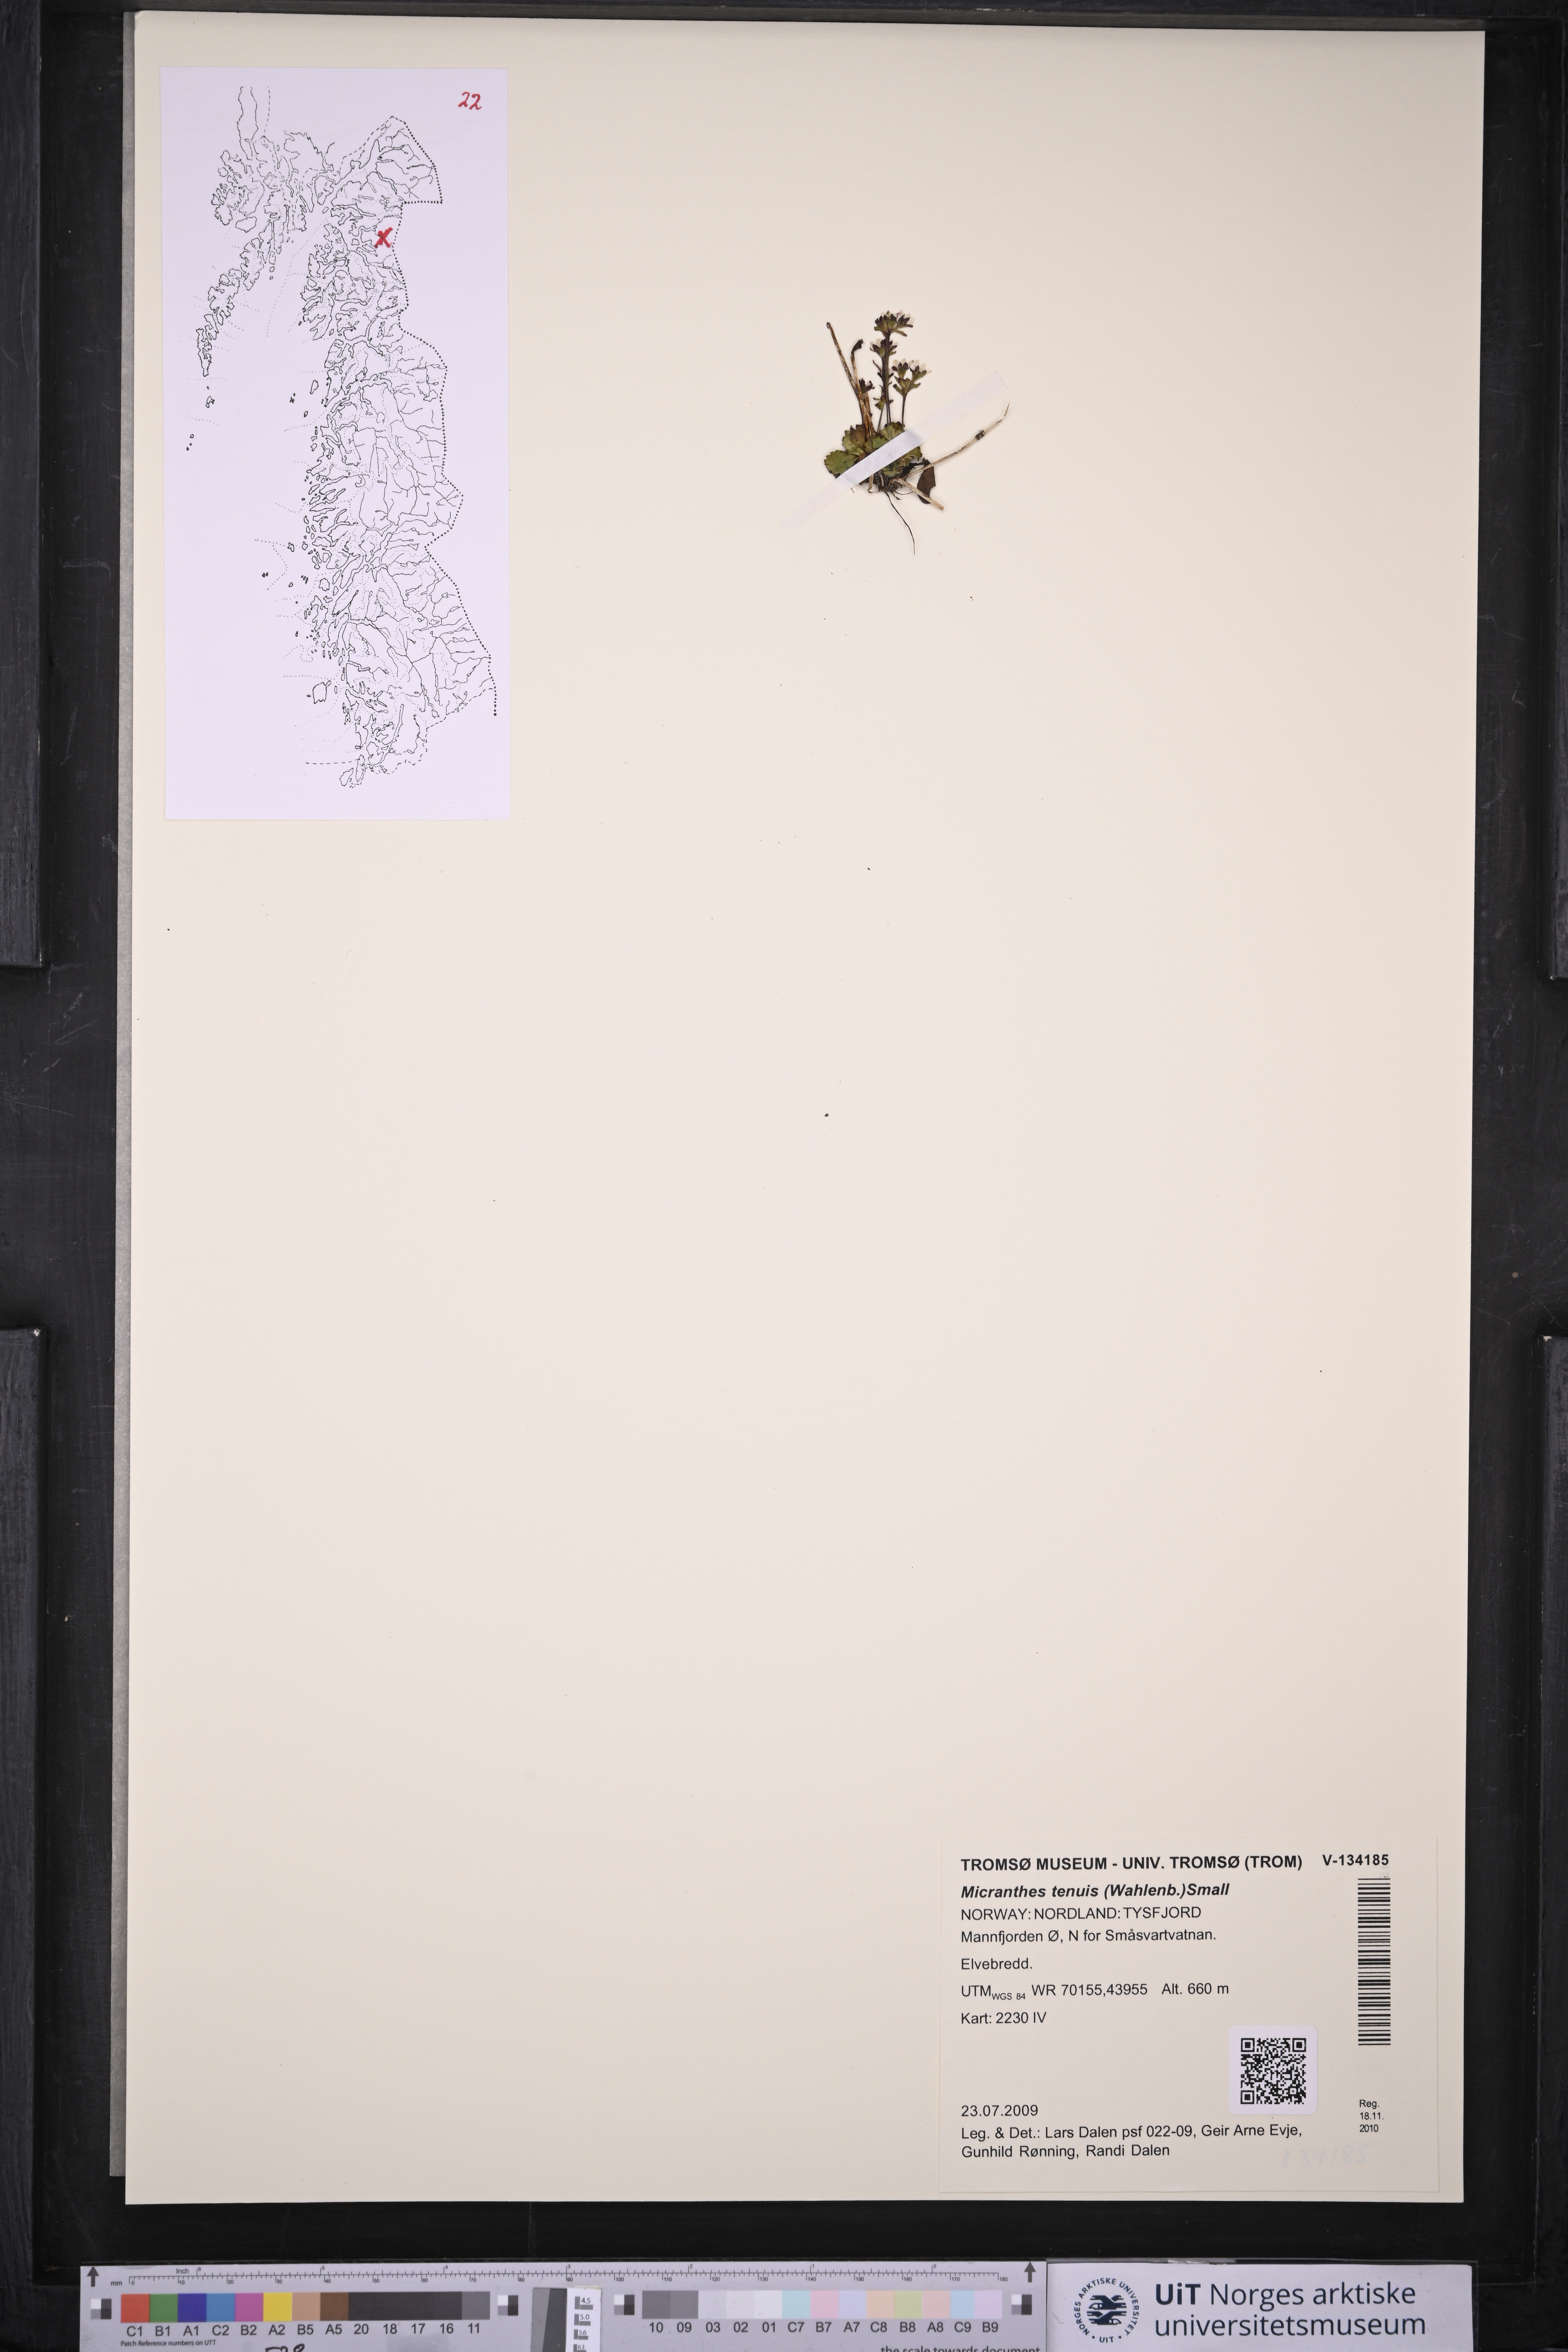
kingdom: Plantae
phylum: Tracheophyta
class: Magnoliopsida
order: Saxifragales
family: Saxifragaceae
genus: Micranthes
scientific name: Micranthes tenuis
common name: Ottertail pass saxifrage
